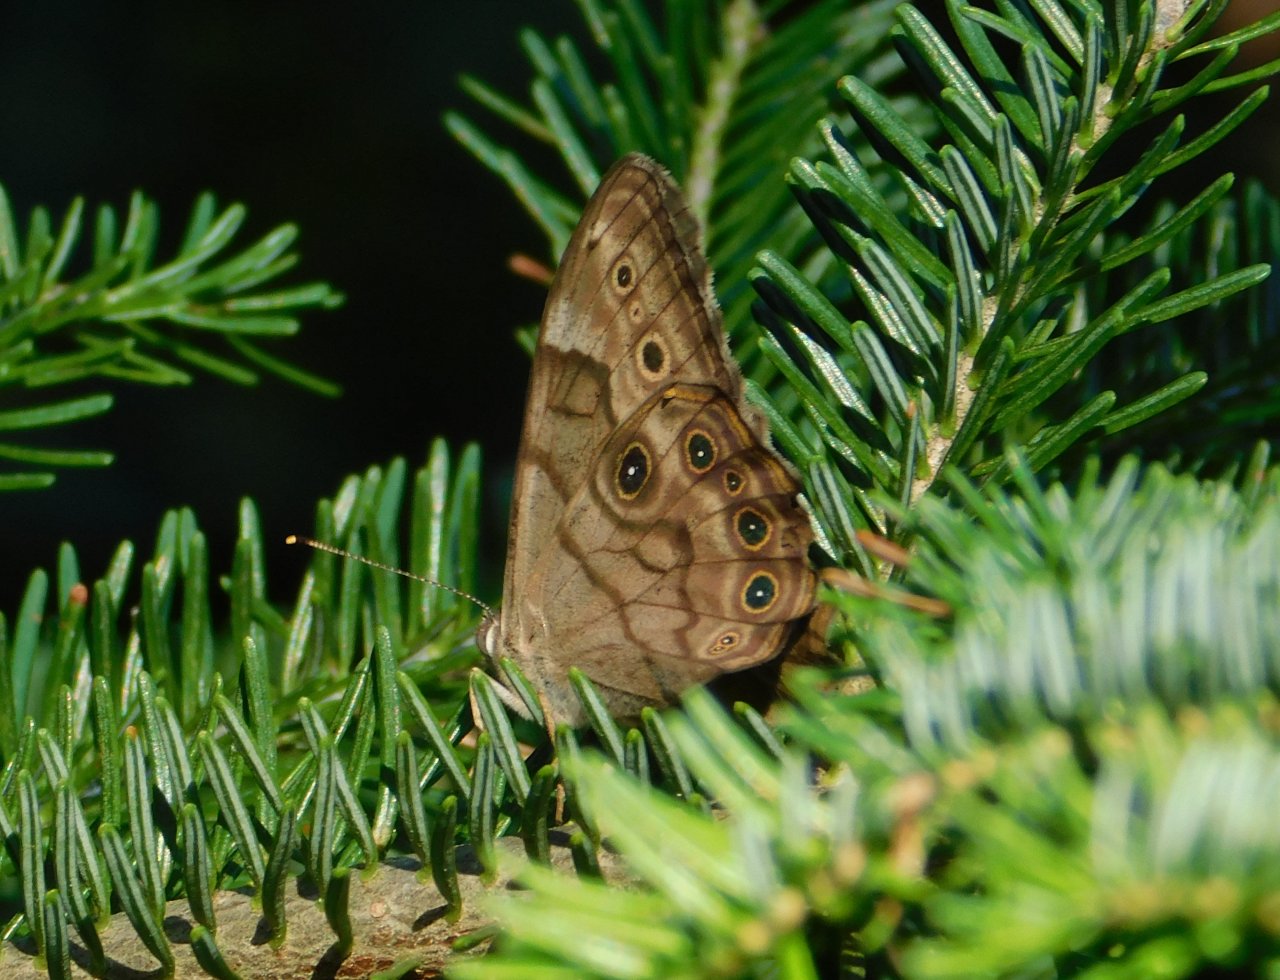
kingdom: Animalia
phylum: Arthropoda
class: Insecta
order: Lepidoptera
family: Nymphalidae
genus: Lethe
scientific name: Lethe anthedon
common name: Northern Pearly-Eye
